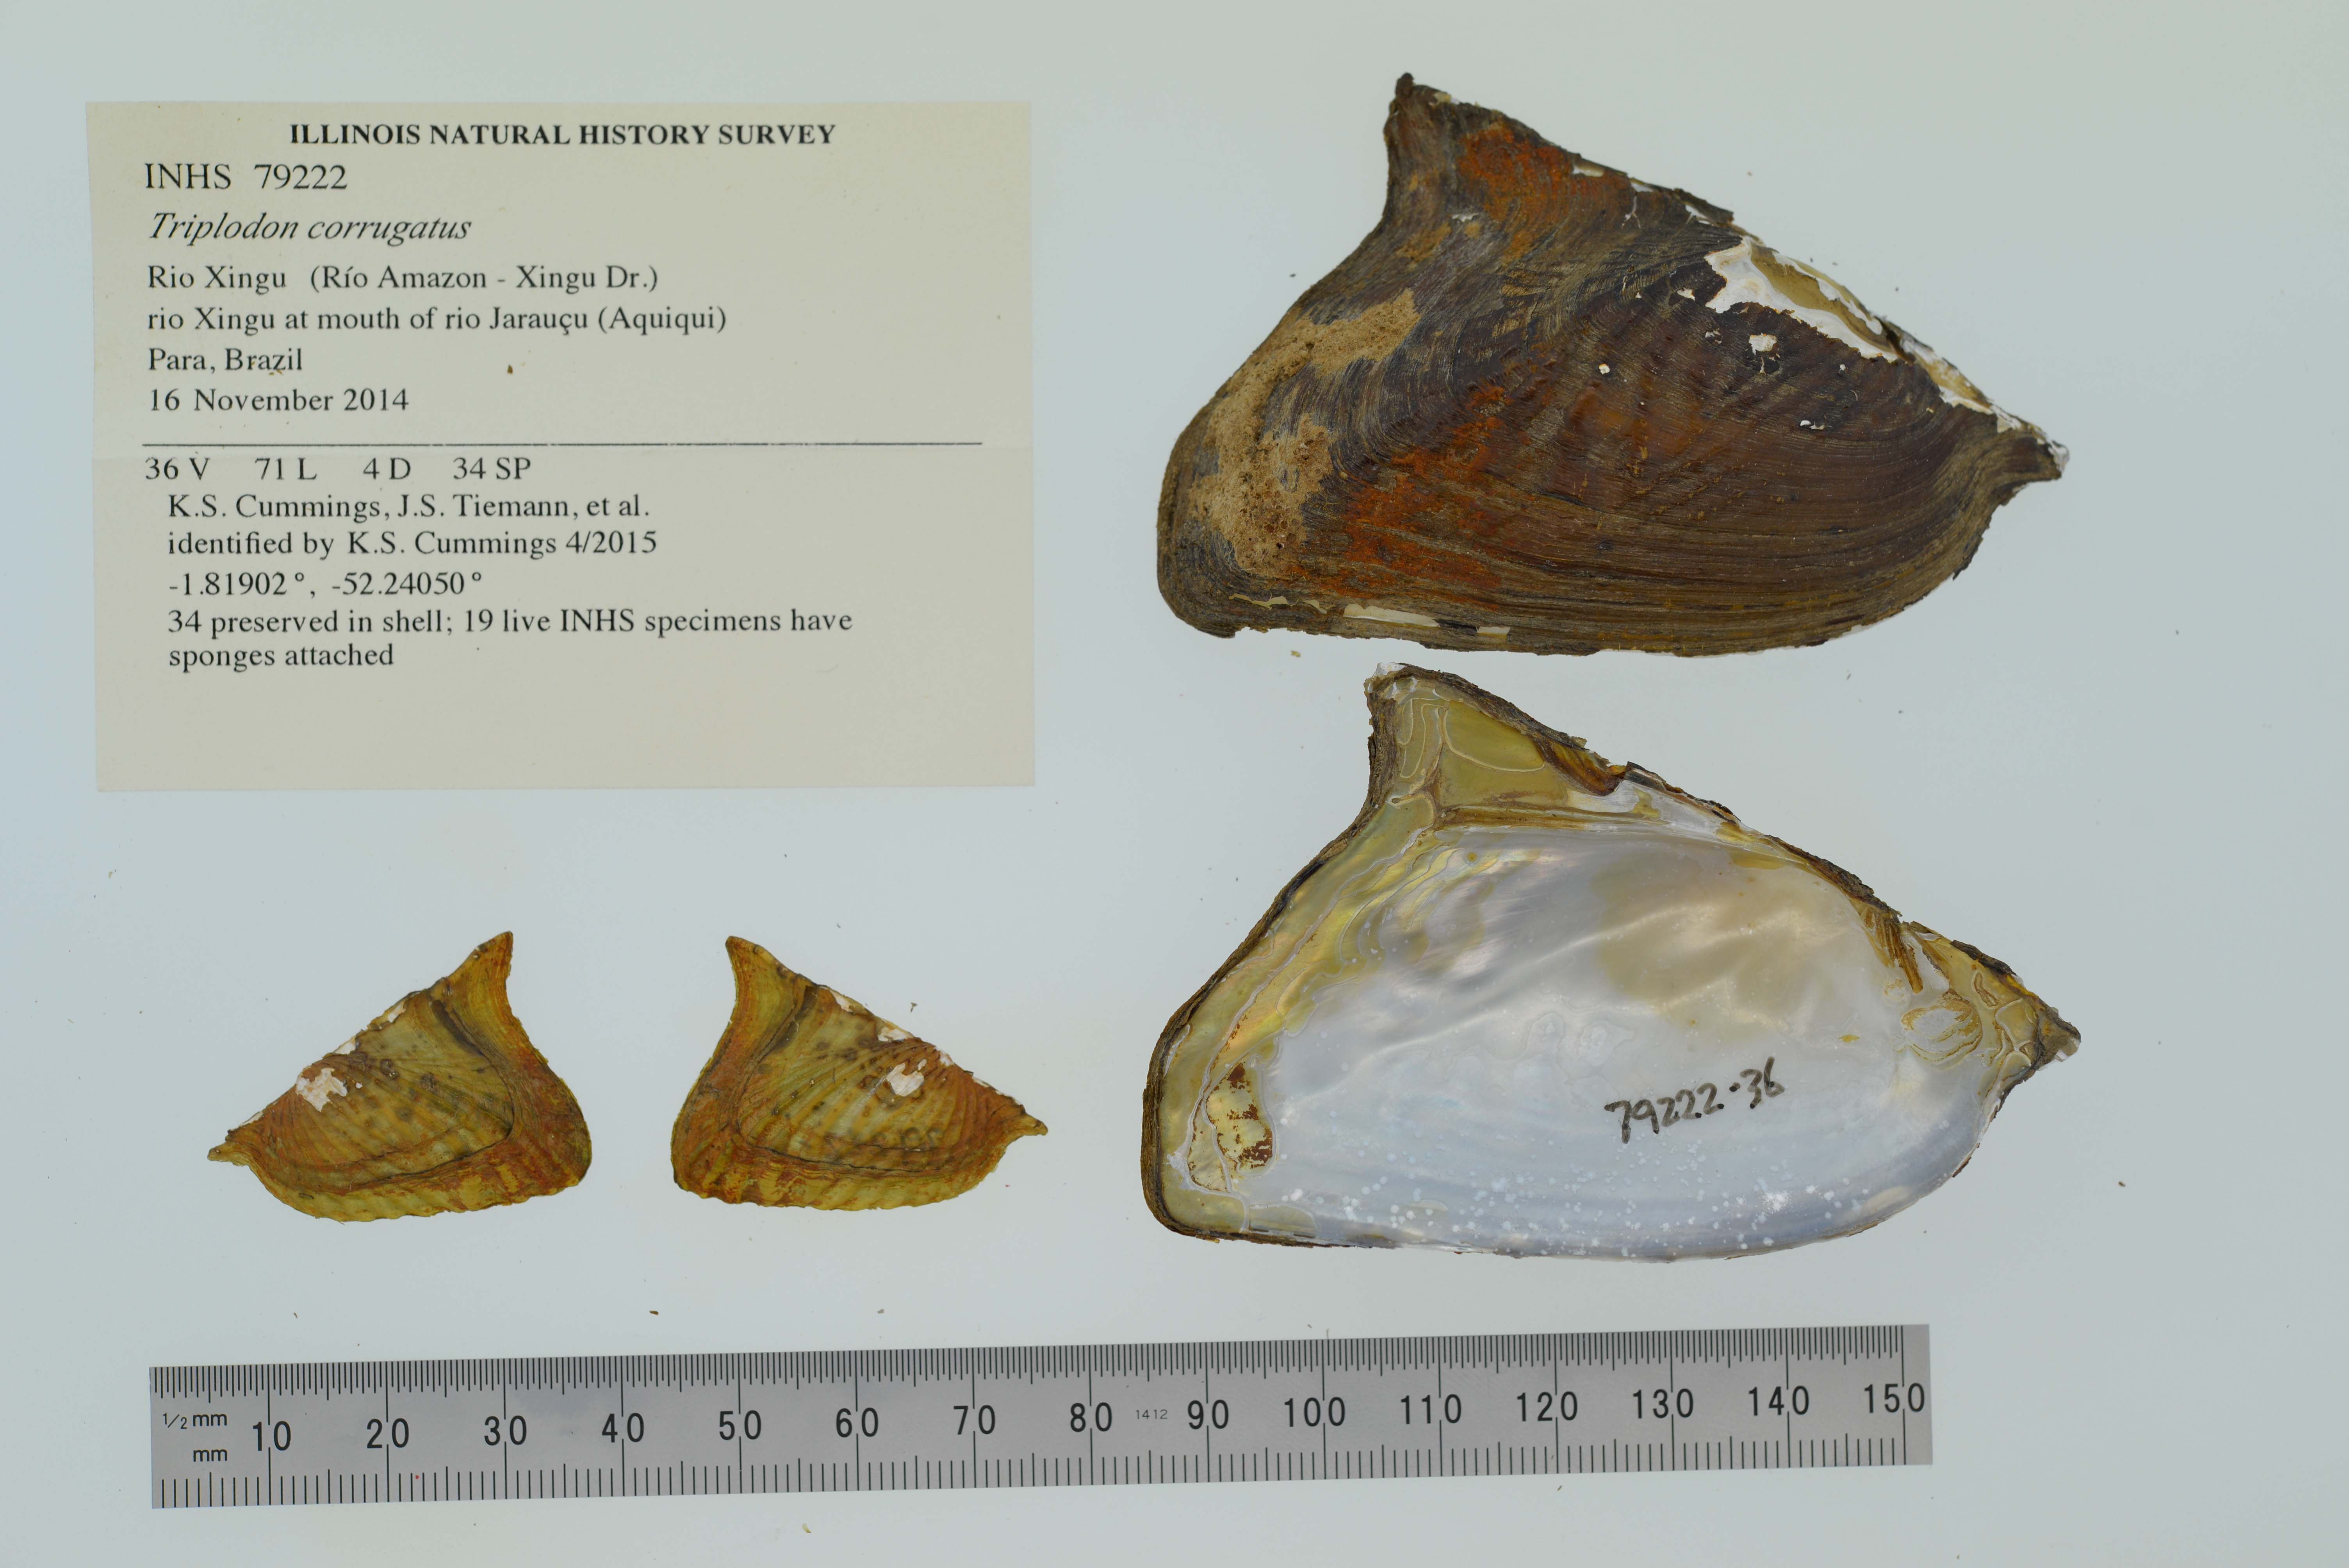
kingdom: Animalia
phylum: Mollusca
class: Bivalvia
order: Unionida
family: Hyriidae
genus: Triplodon
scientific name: Triplodon corrugatus
